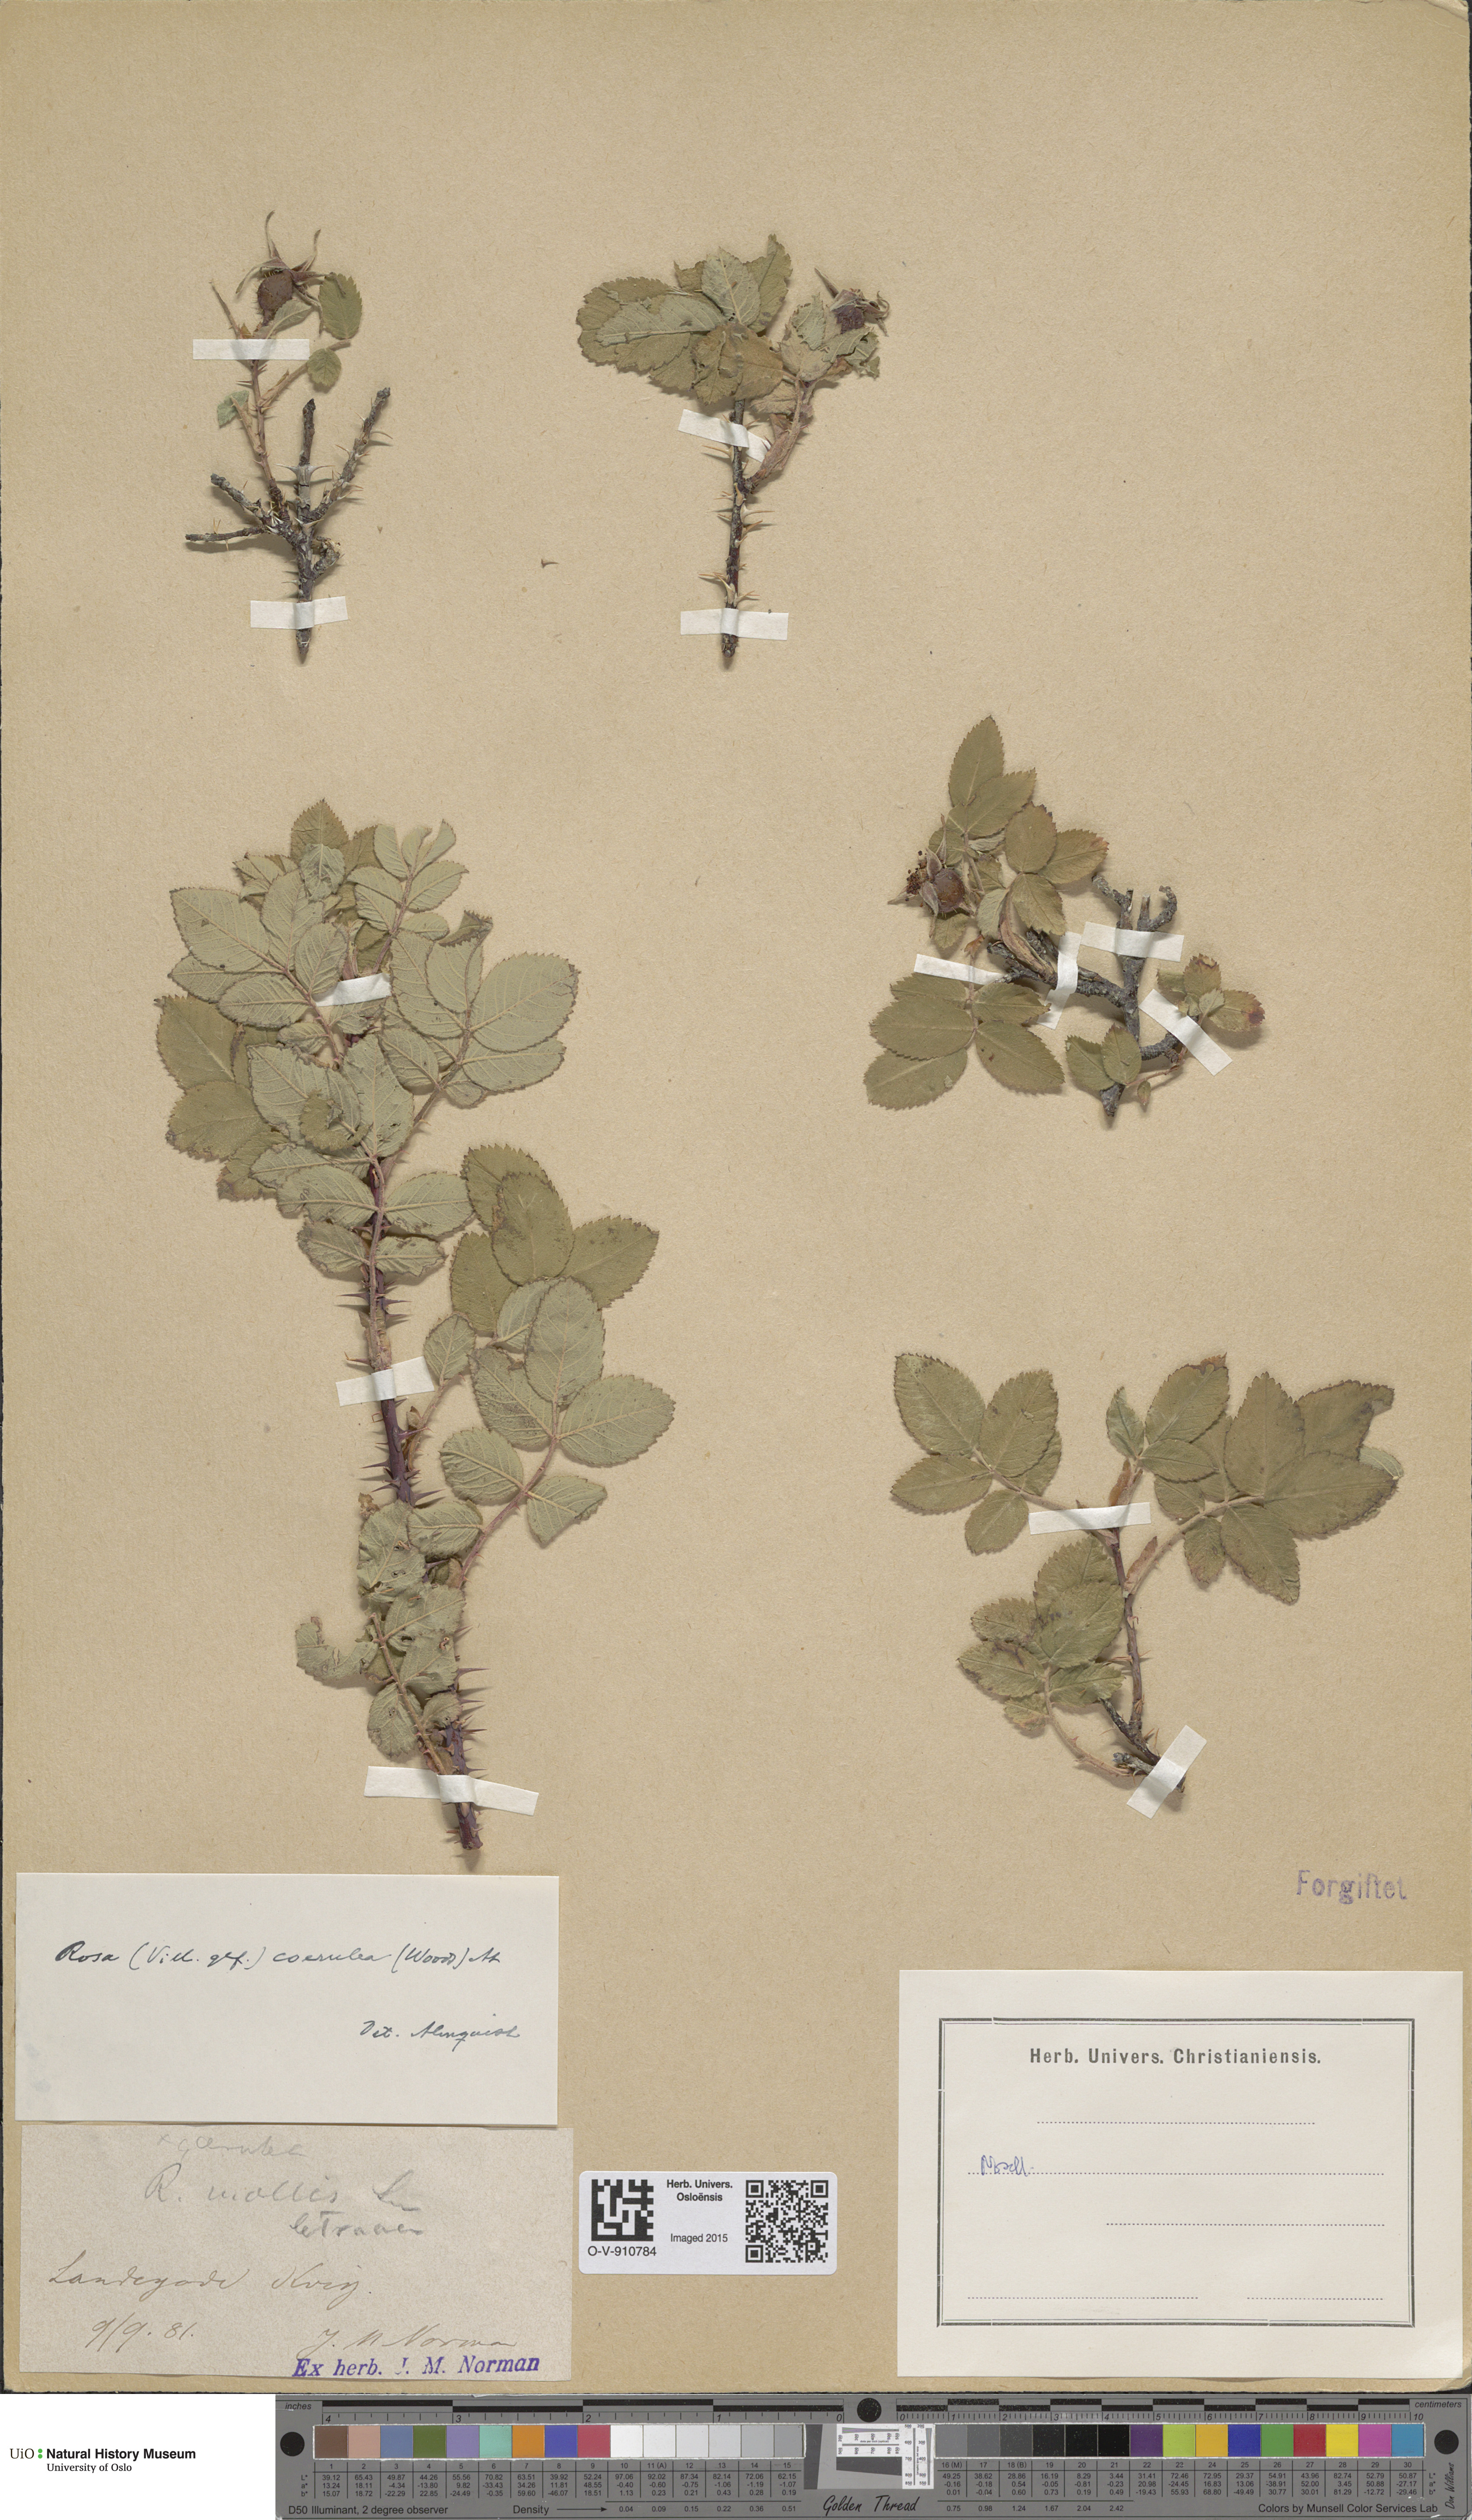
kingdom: Plantae
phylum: Tracheophyta
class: Magnoliopsida
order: Rosales
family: Rosaceae
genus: Rosa
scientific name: Rosa mollis
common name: Rose
